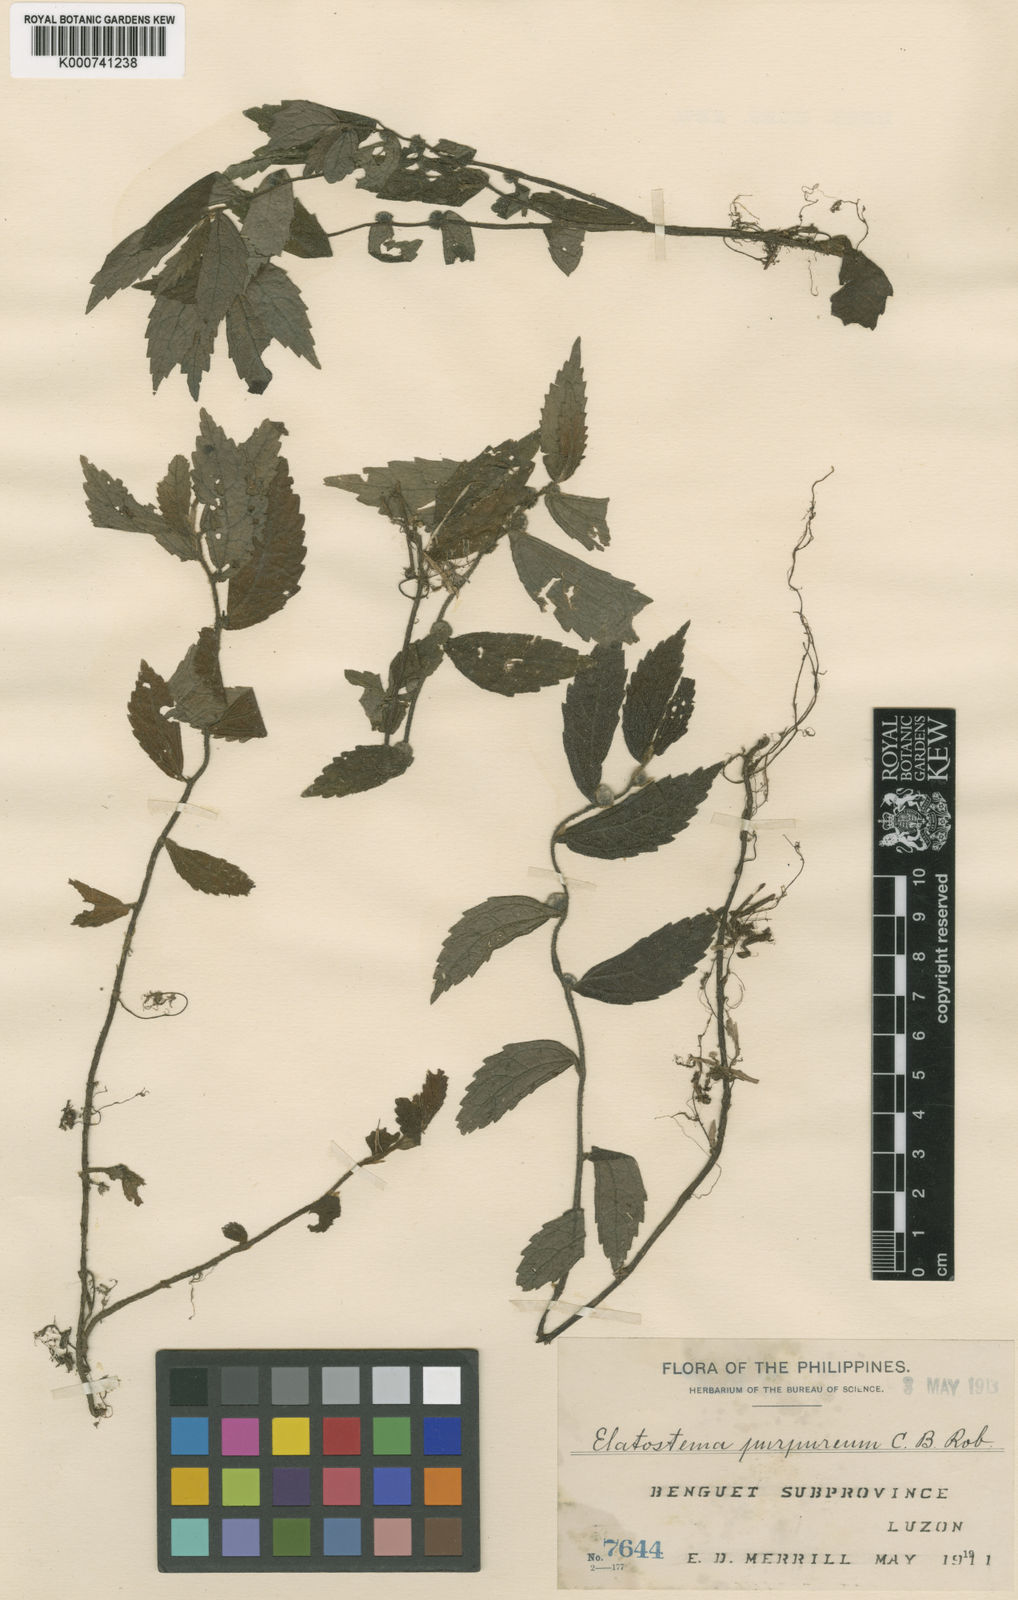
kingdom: Plantae
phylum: Tracheophyta
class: Magnoliopsida
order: Rosales
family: Urticaceae
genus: Elatostema
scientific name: Elatostema purpureum
